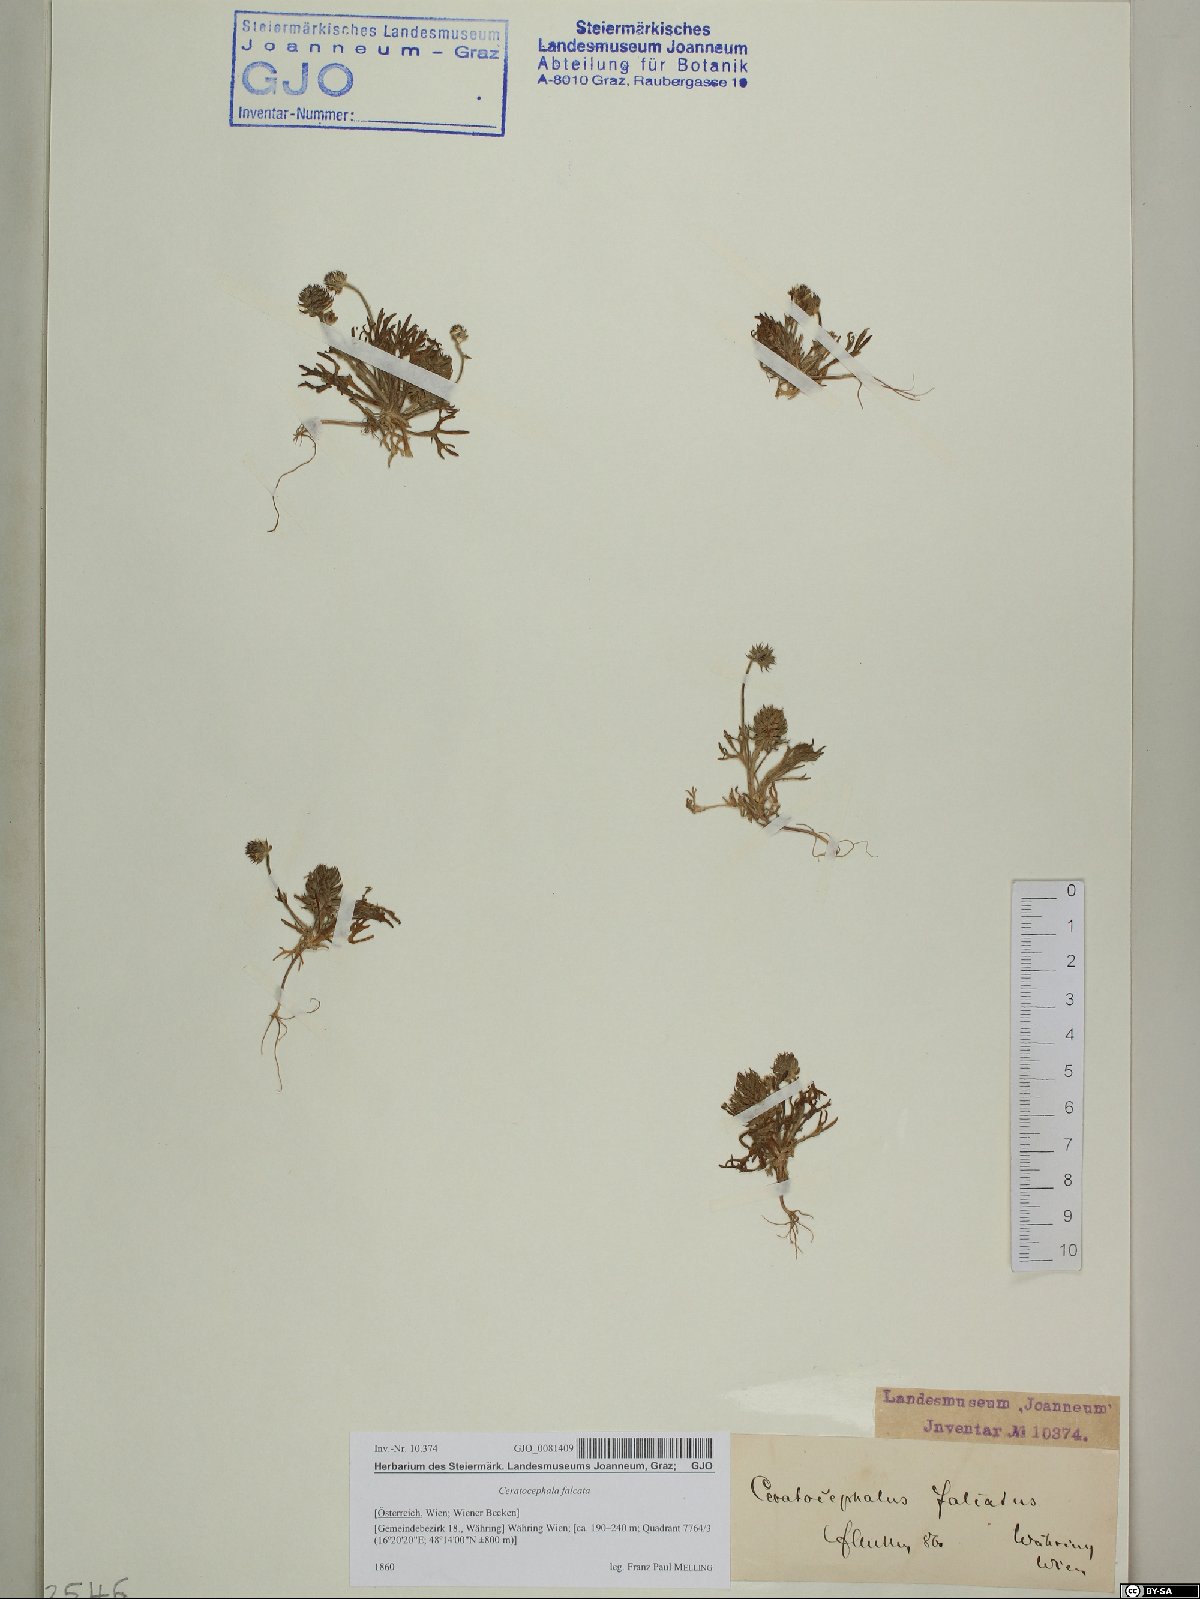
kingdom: Plantae
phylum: Tracheophyta
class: Magnoliopsida
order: Ranunculales
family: Ranunculaceae
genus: Ceratocephala
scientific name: Ceratocephala falcata
